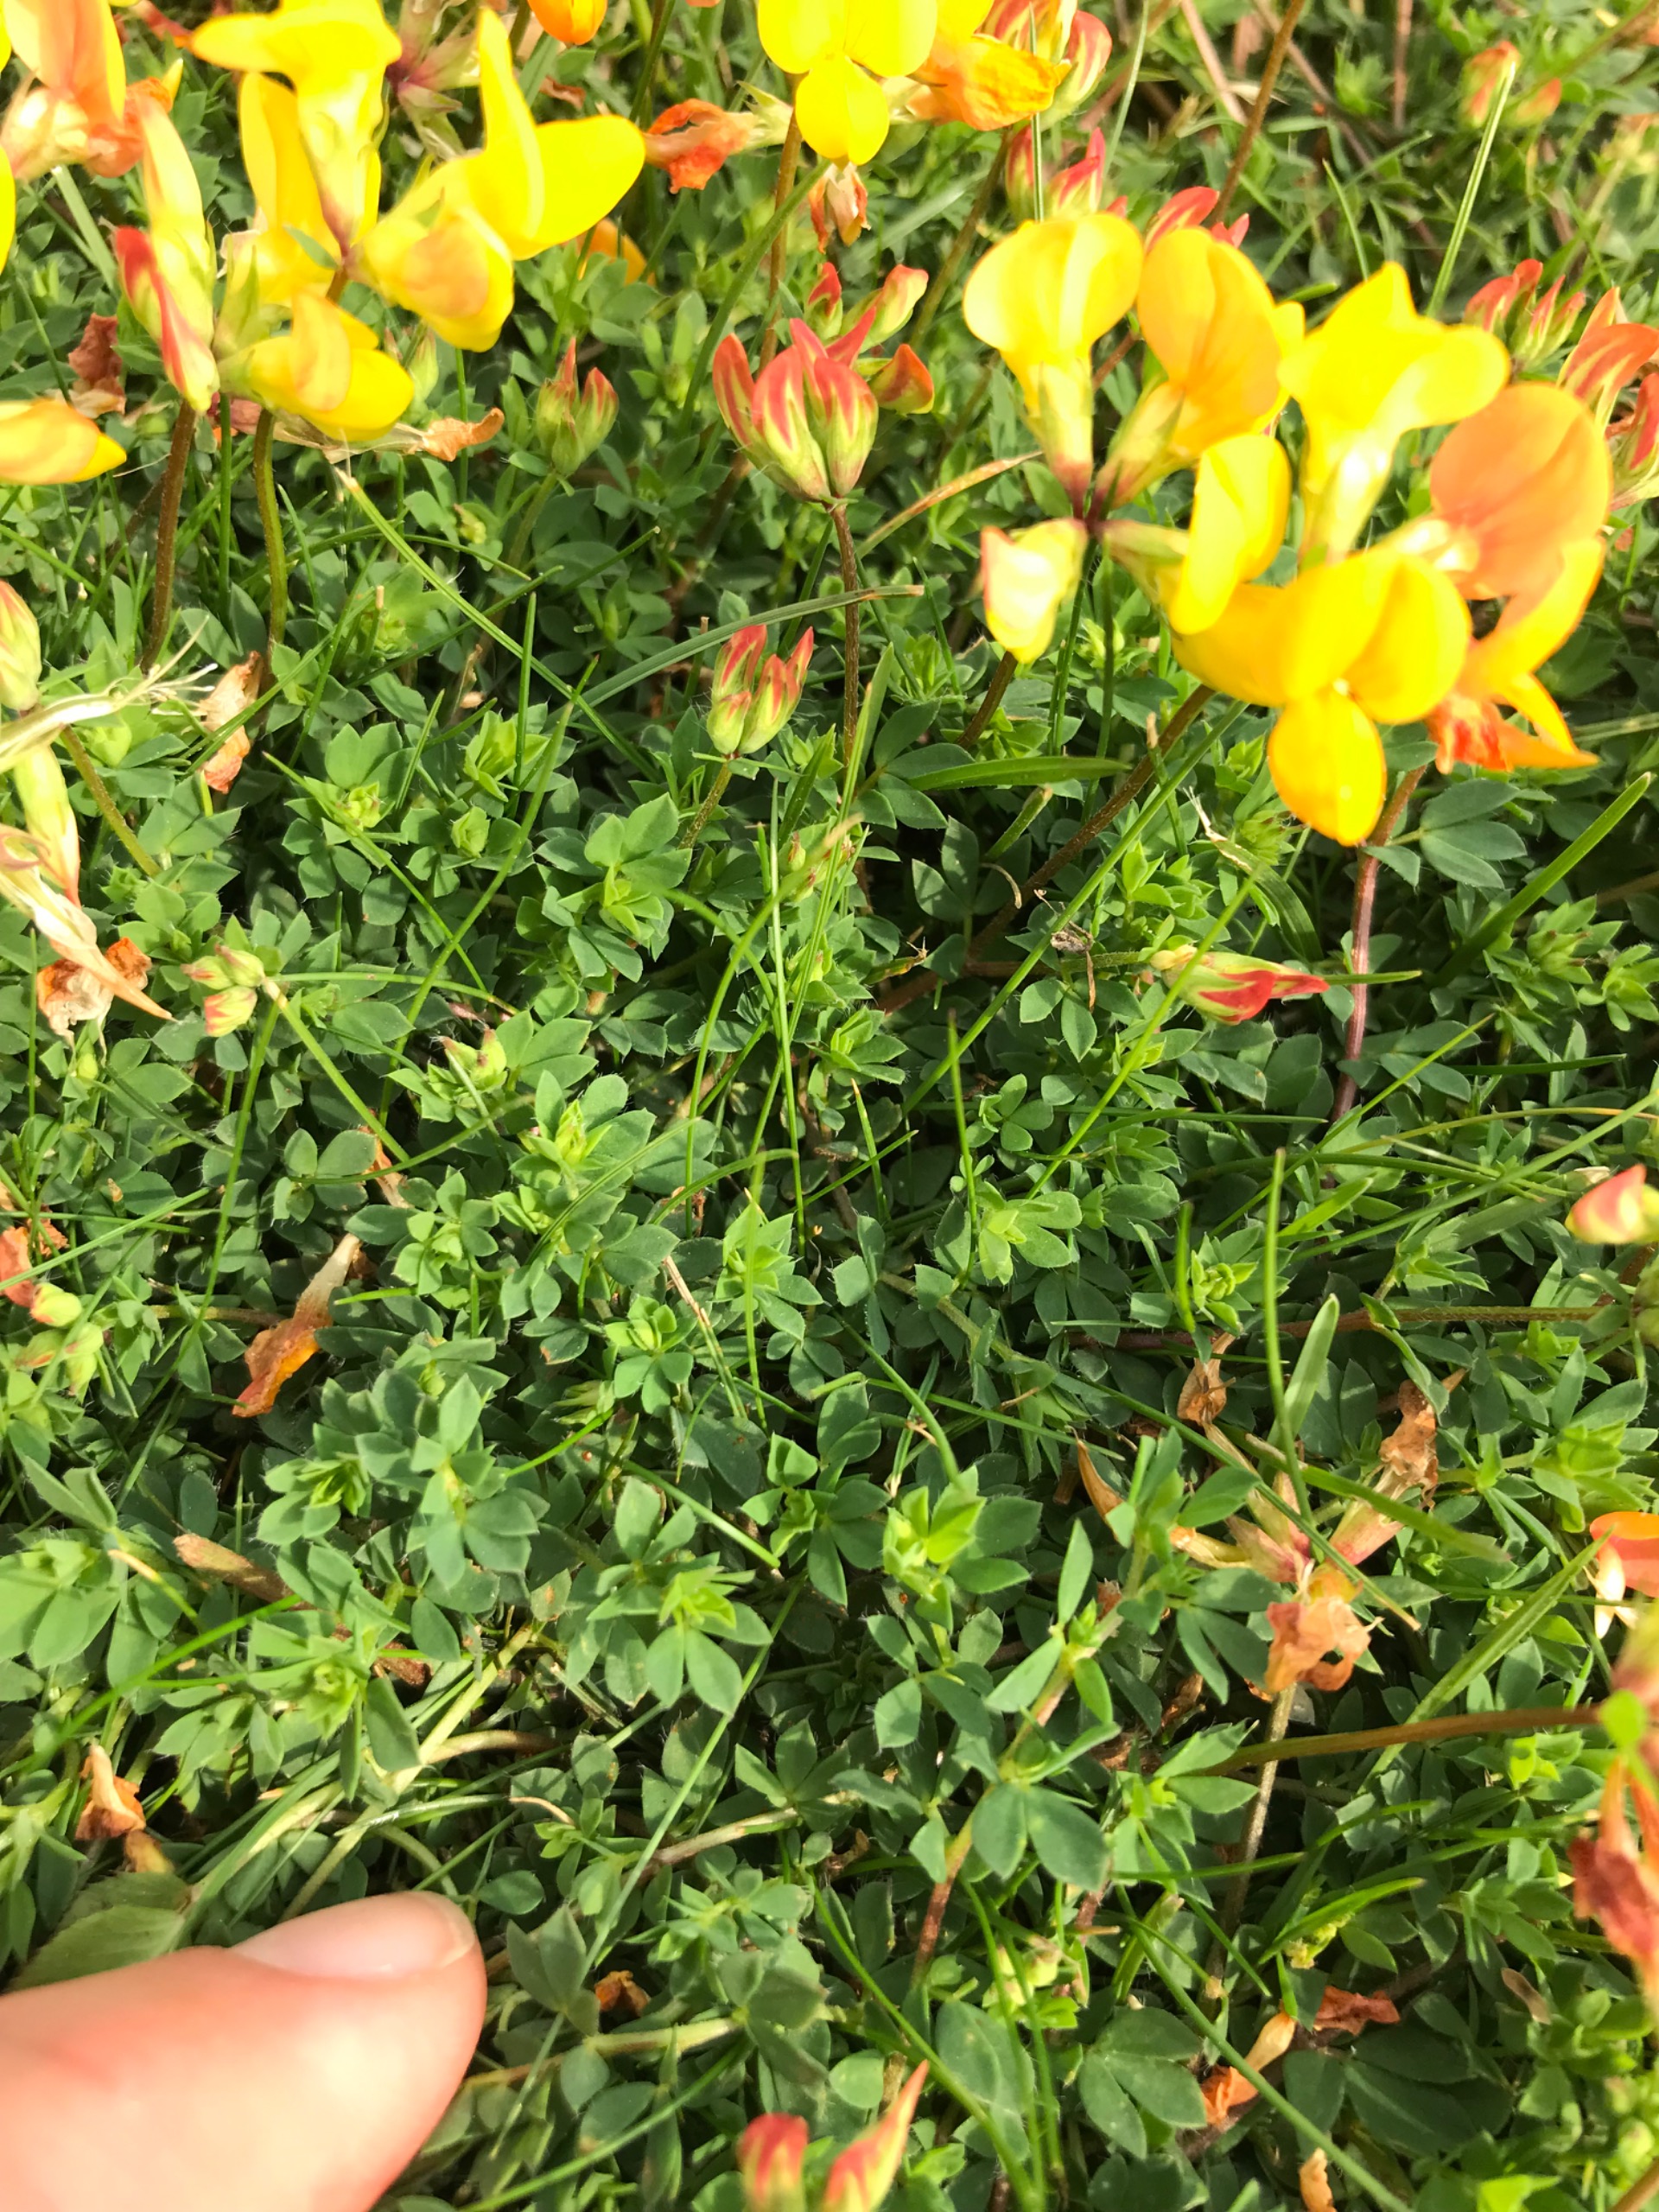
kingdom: Plantae
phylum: Tracheophyta
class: Magnoliopsida
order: Fabales
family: Fabaceae
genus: Lotus
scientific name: Lotus corniculatus
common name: Almindelig kællingetand
